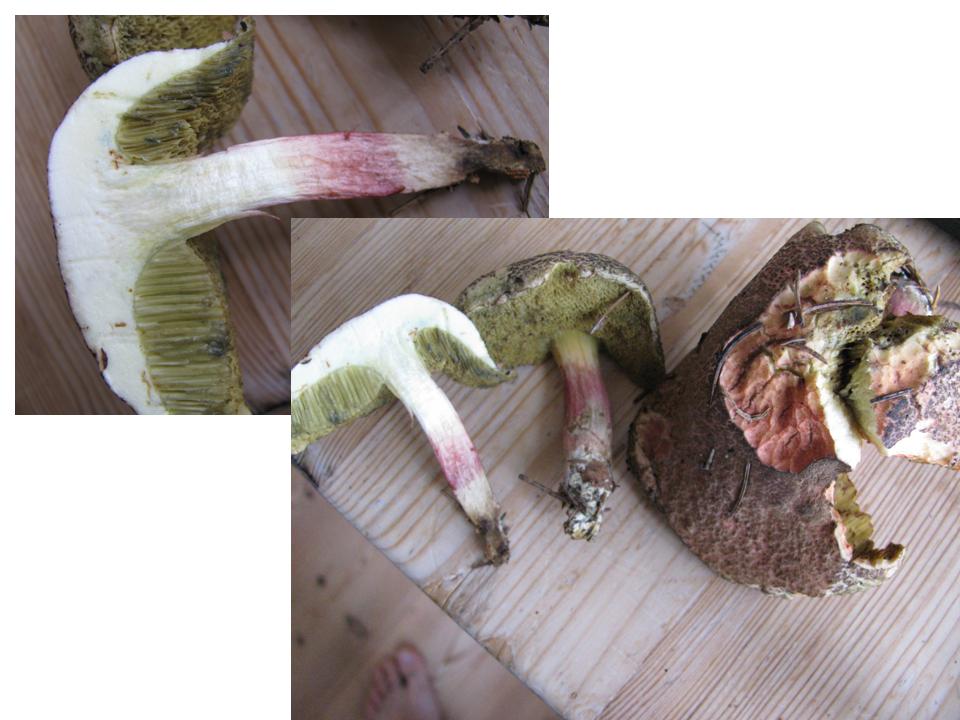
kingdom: Fungi
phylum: Basidiomycota
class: Agaricomycetes
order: Boletales
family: Boletaceae
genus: Xerocomellus
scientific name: Xerocomellus chrysenteron
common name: rødsprukken rørhat
